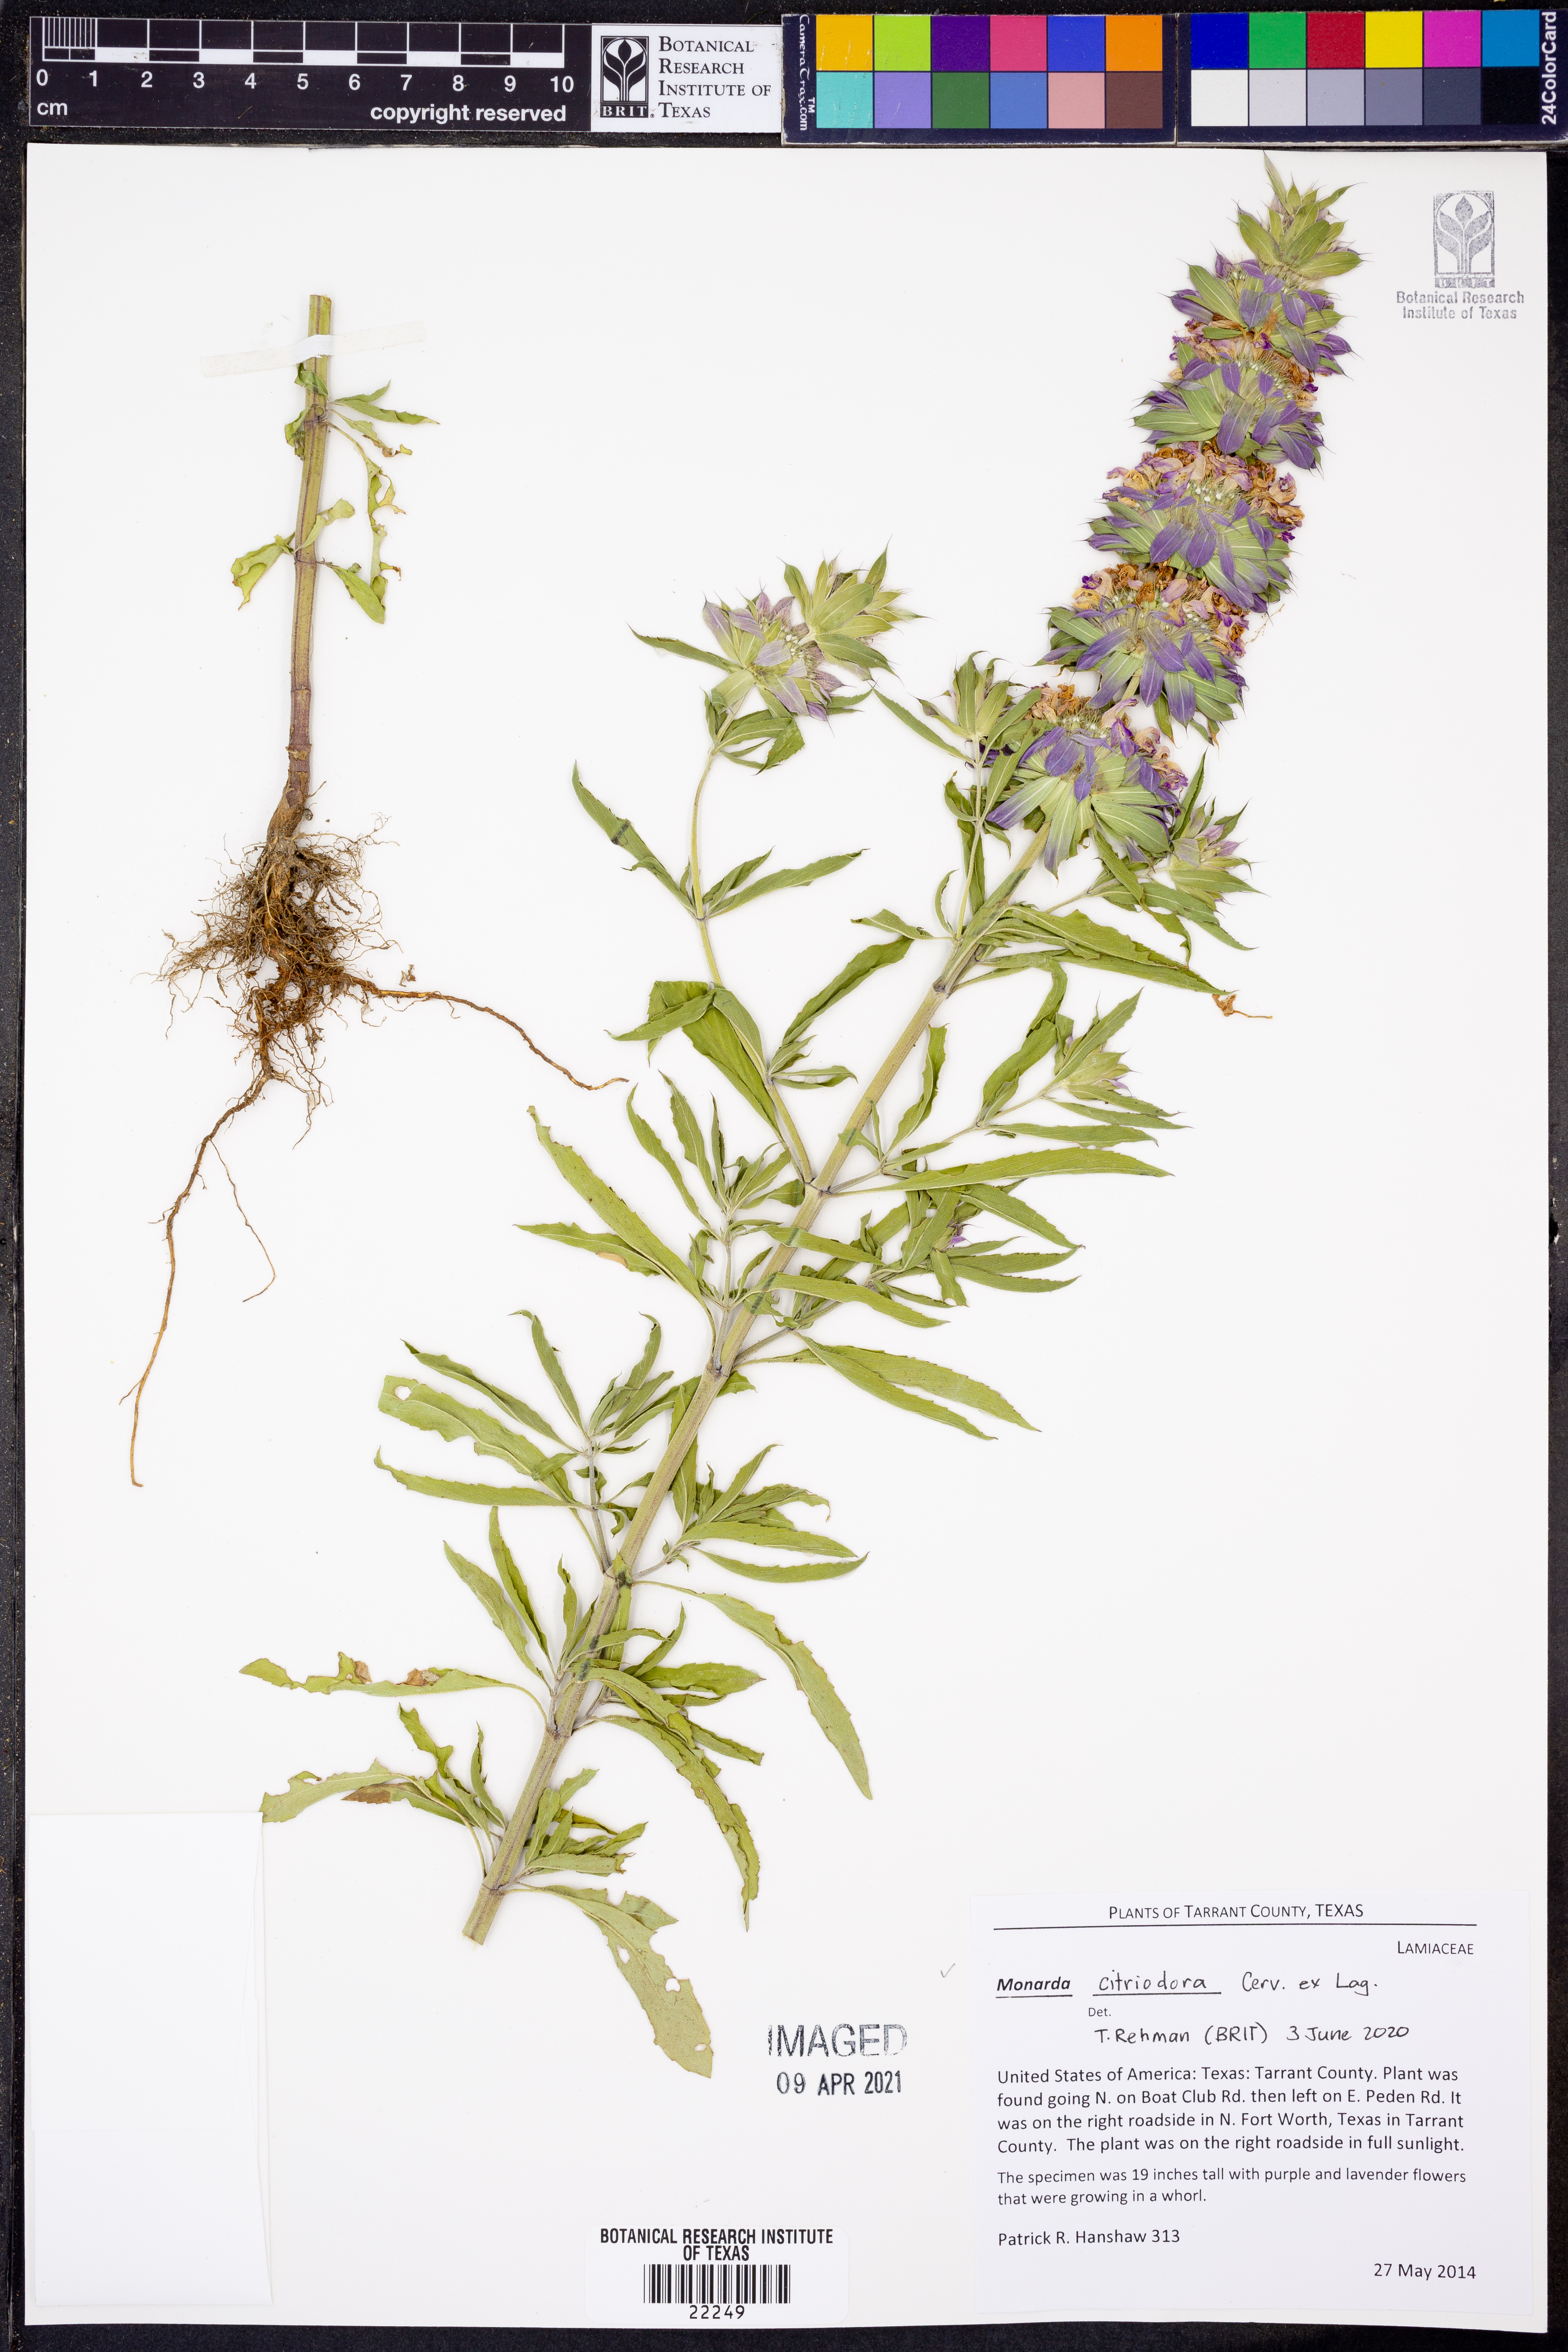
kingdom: Plantae
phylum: Tracheophyta
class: Magnoliopsida
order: Lamiales
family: Lamiaceae
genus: Monarda
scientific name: Monarda citriodora
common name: Lemon beebalm
